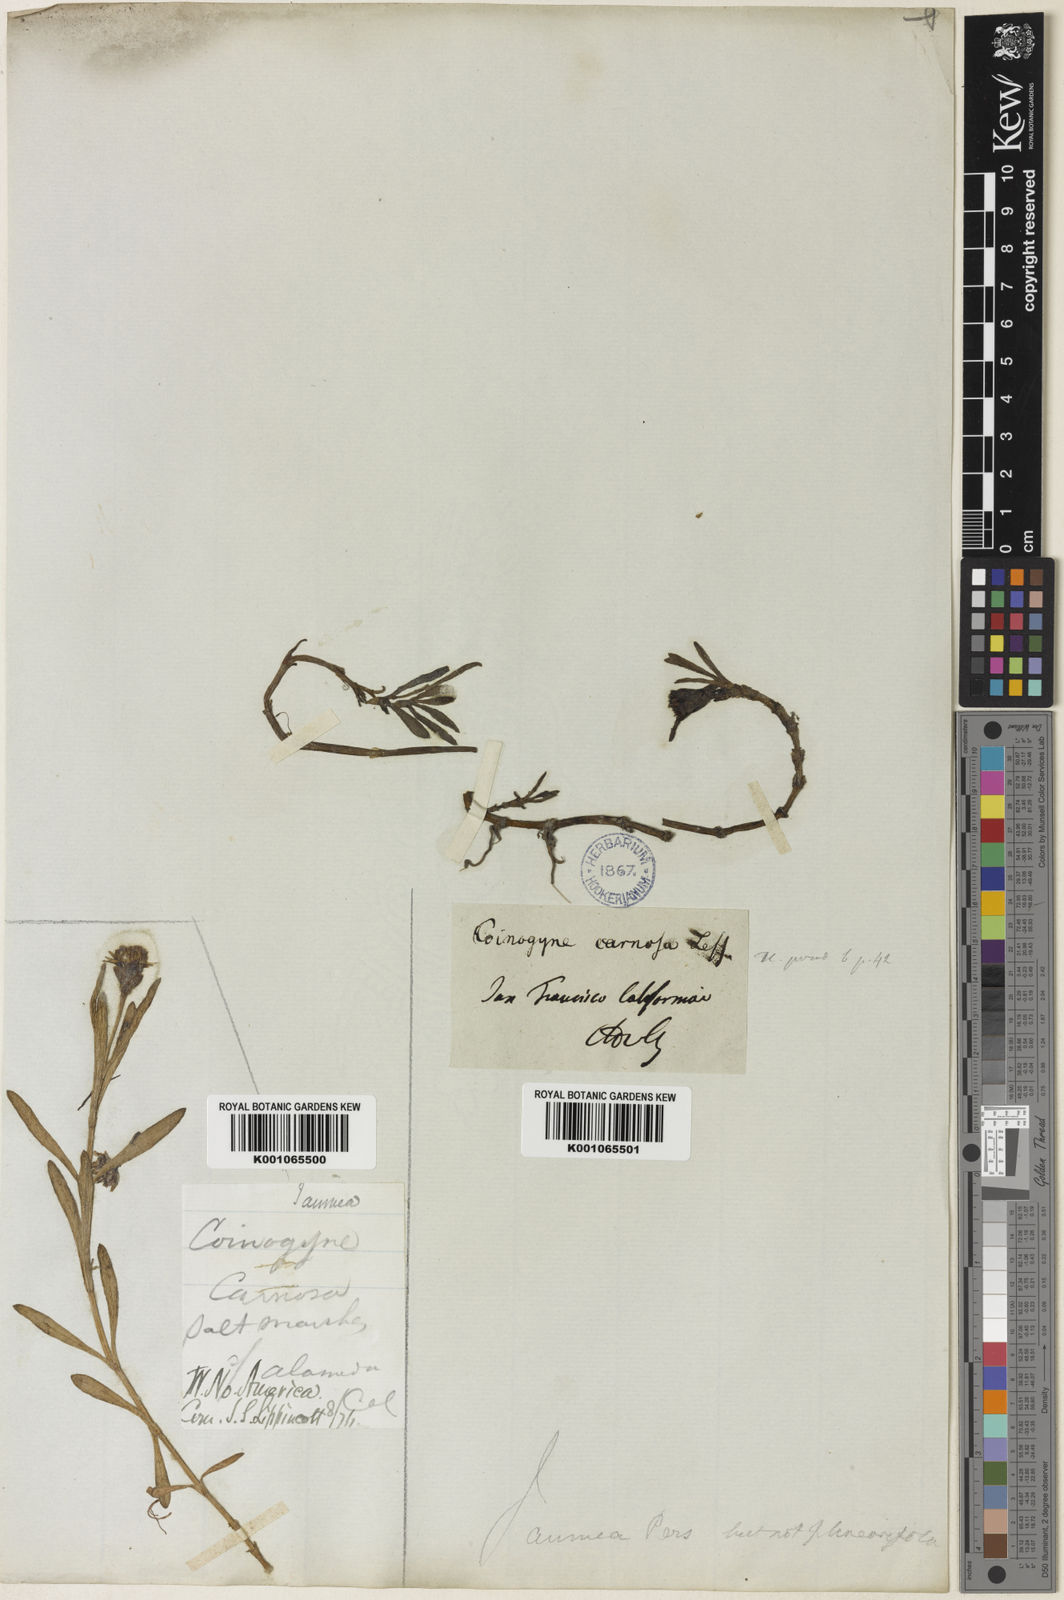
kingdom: Plantae
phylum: Tracheophyta
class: Magnoliopsida
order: Asterales
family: Asteraceae
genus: Jaumea
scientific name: Jaumea carnosa
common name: Fleshy jaumea
